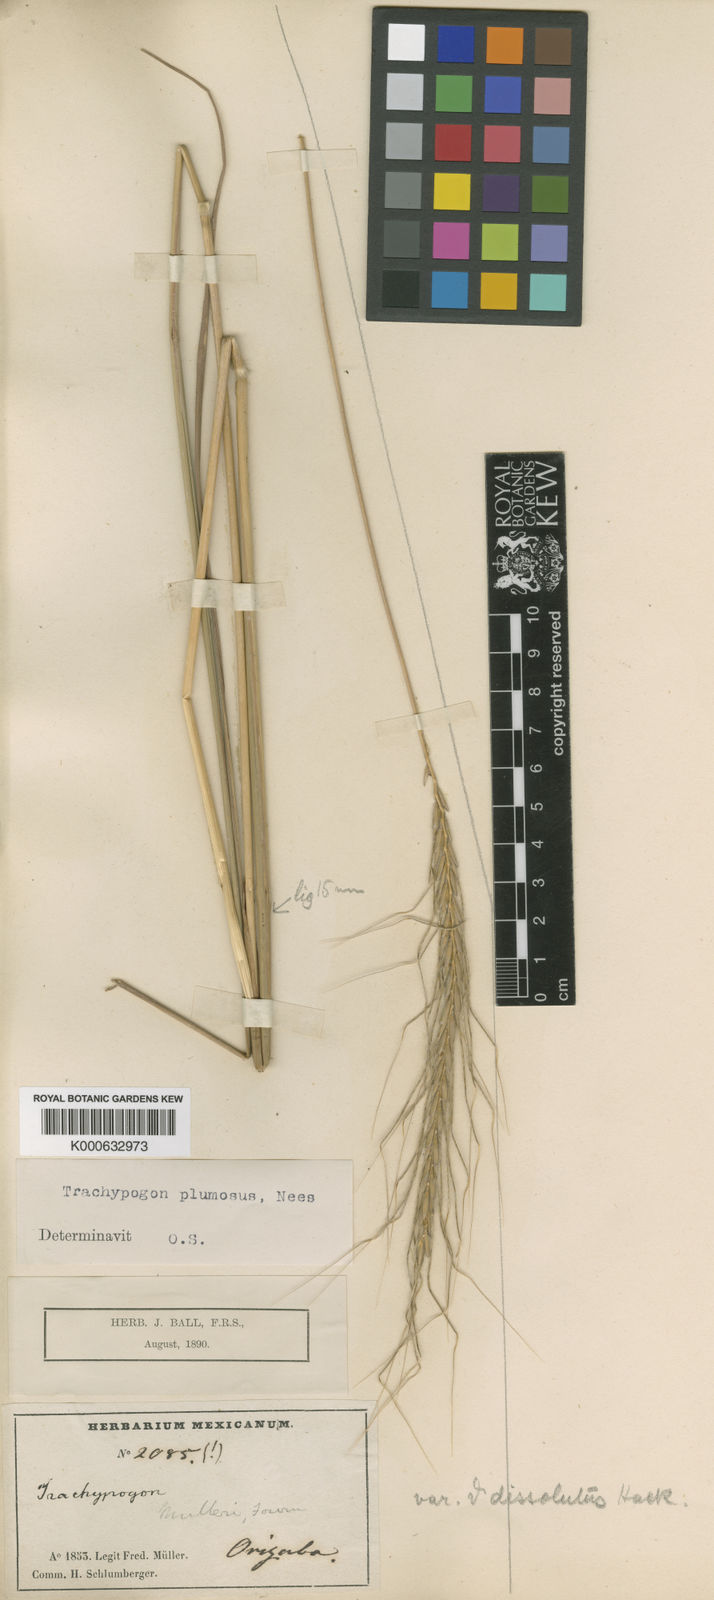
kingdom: Plantae
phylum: Tracheophyta
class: Liliopsida
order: Poales
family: Poaceae
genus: Trachypogon
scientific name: Trachypogon spicatus
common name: Crinkle-awn
